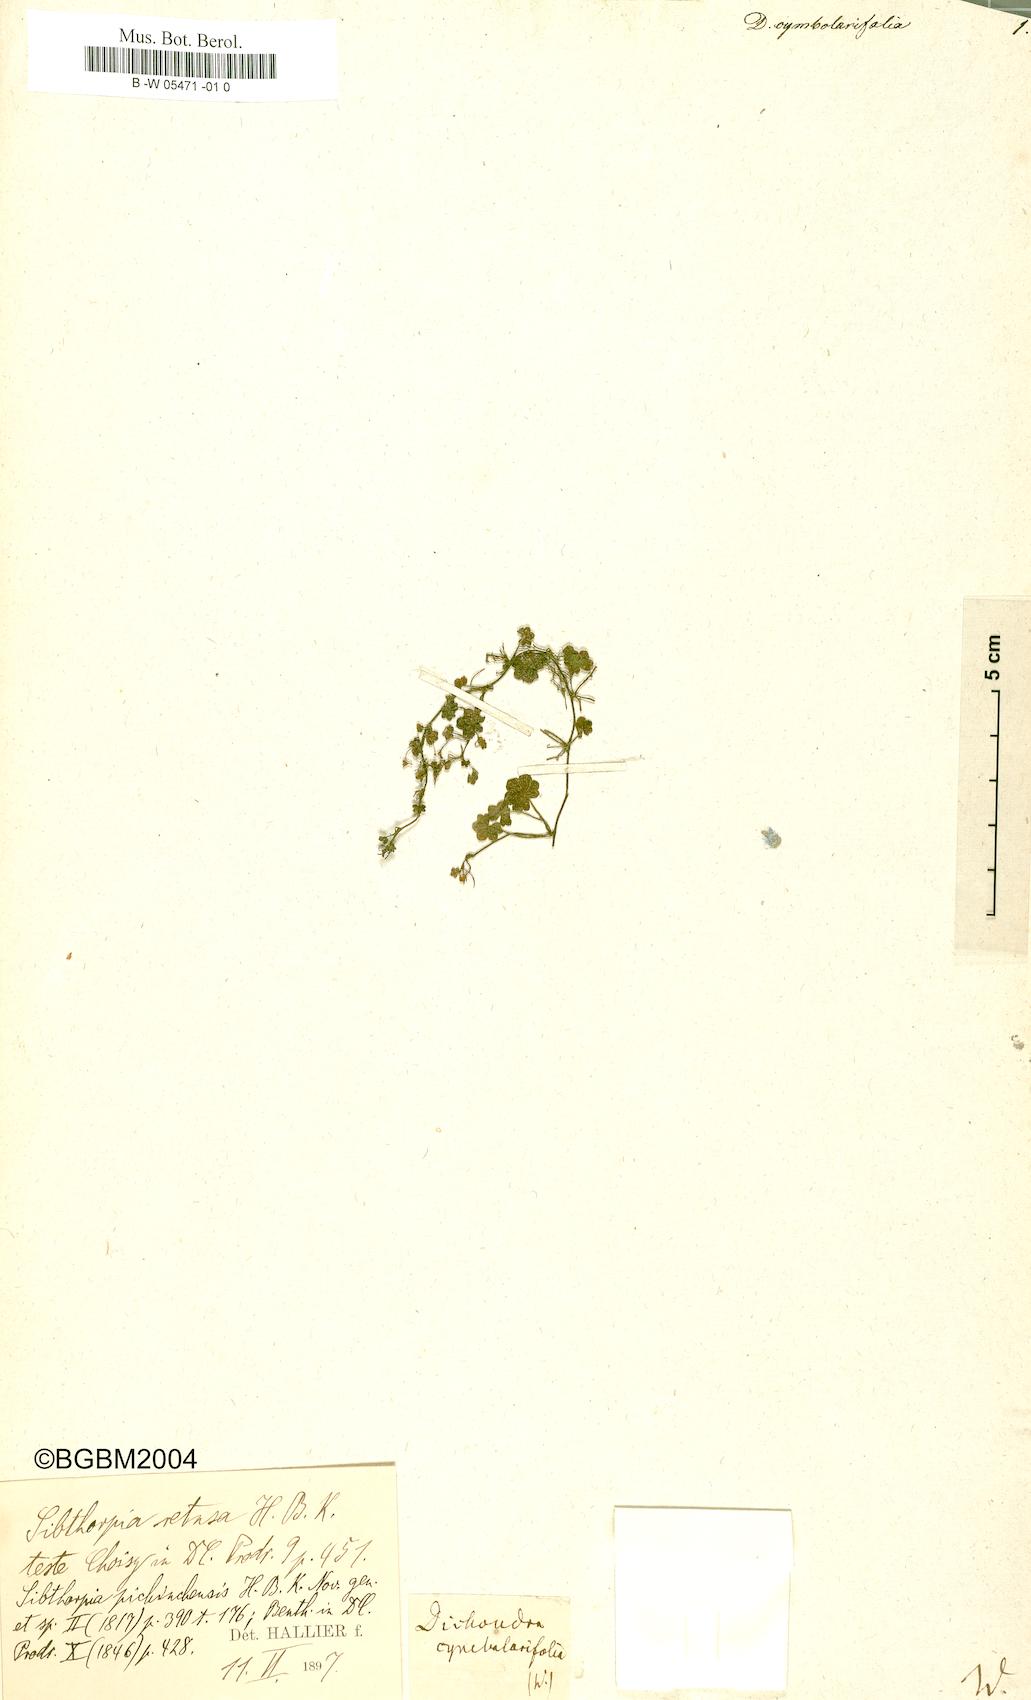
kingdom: Plantae
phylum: Tracheophyta
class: Magnoliopsida
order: Solanales
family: Convolvulaceae
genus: Dichondra
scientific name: Dichondra cymbalariifolia
